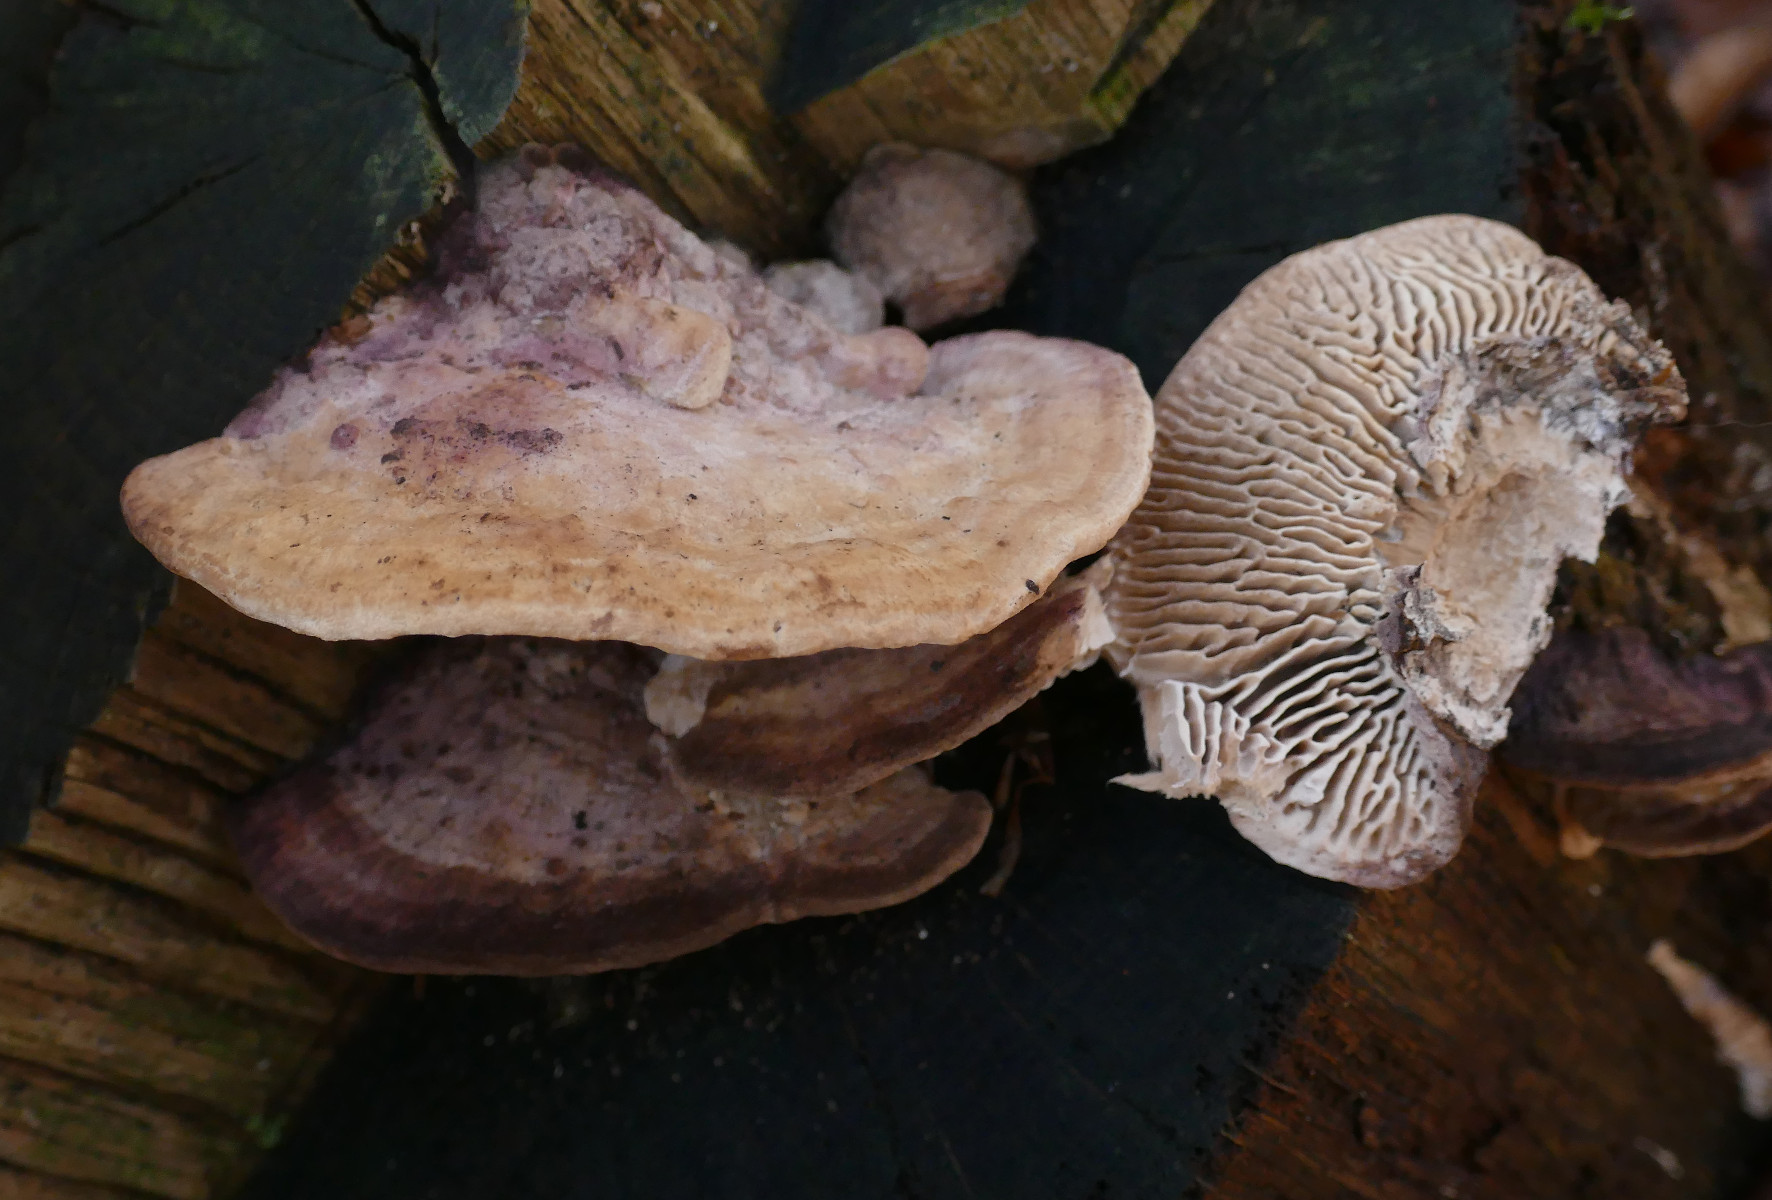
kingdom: Fungi
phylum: Basidiomycota
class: Agaricomycetes
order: Polyporales
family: Fomitopsidaceae
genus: Daedalea
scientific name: Daedalea quercina
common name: ege-labyrintsvamp
